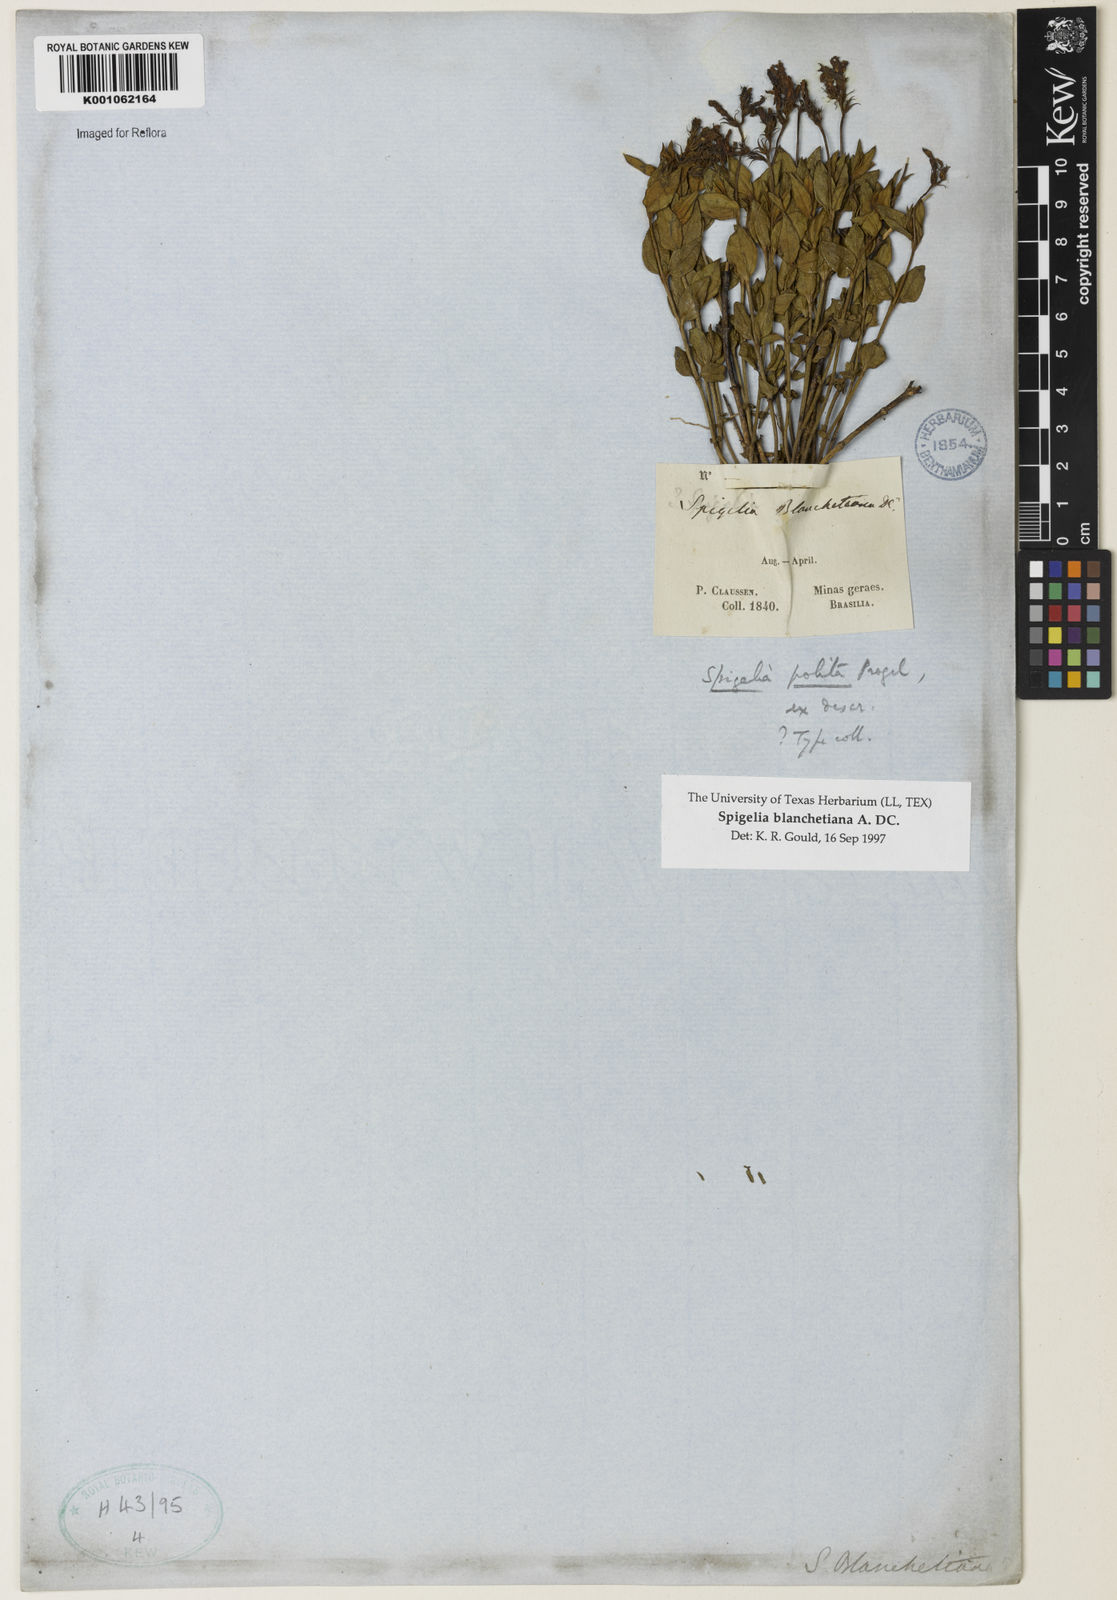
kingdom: Plantae
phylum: Tracheophyta
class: Magnoliopsida
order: Gentianales
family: Loganiaceae
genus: Spigelia
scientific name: Spigelia blanchetiana
